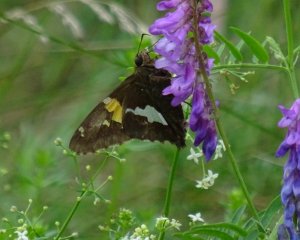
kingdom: Animalia
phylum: Arthropoda
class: Insecta
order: Lepidoptera
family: Hesperiidae
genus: Epargyreus
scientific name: Epargyreus clarus
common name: Silver-spotted Skipper
